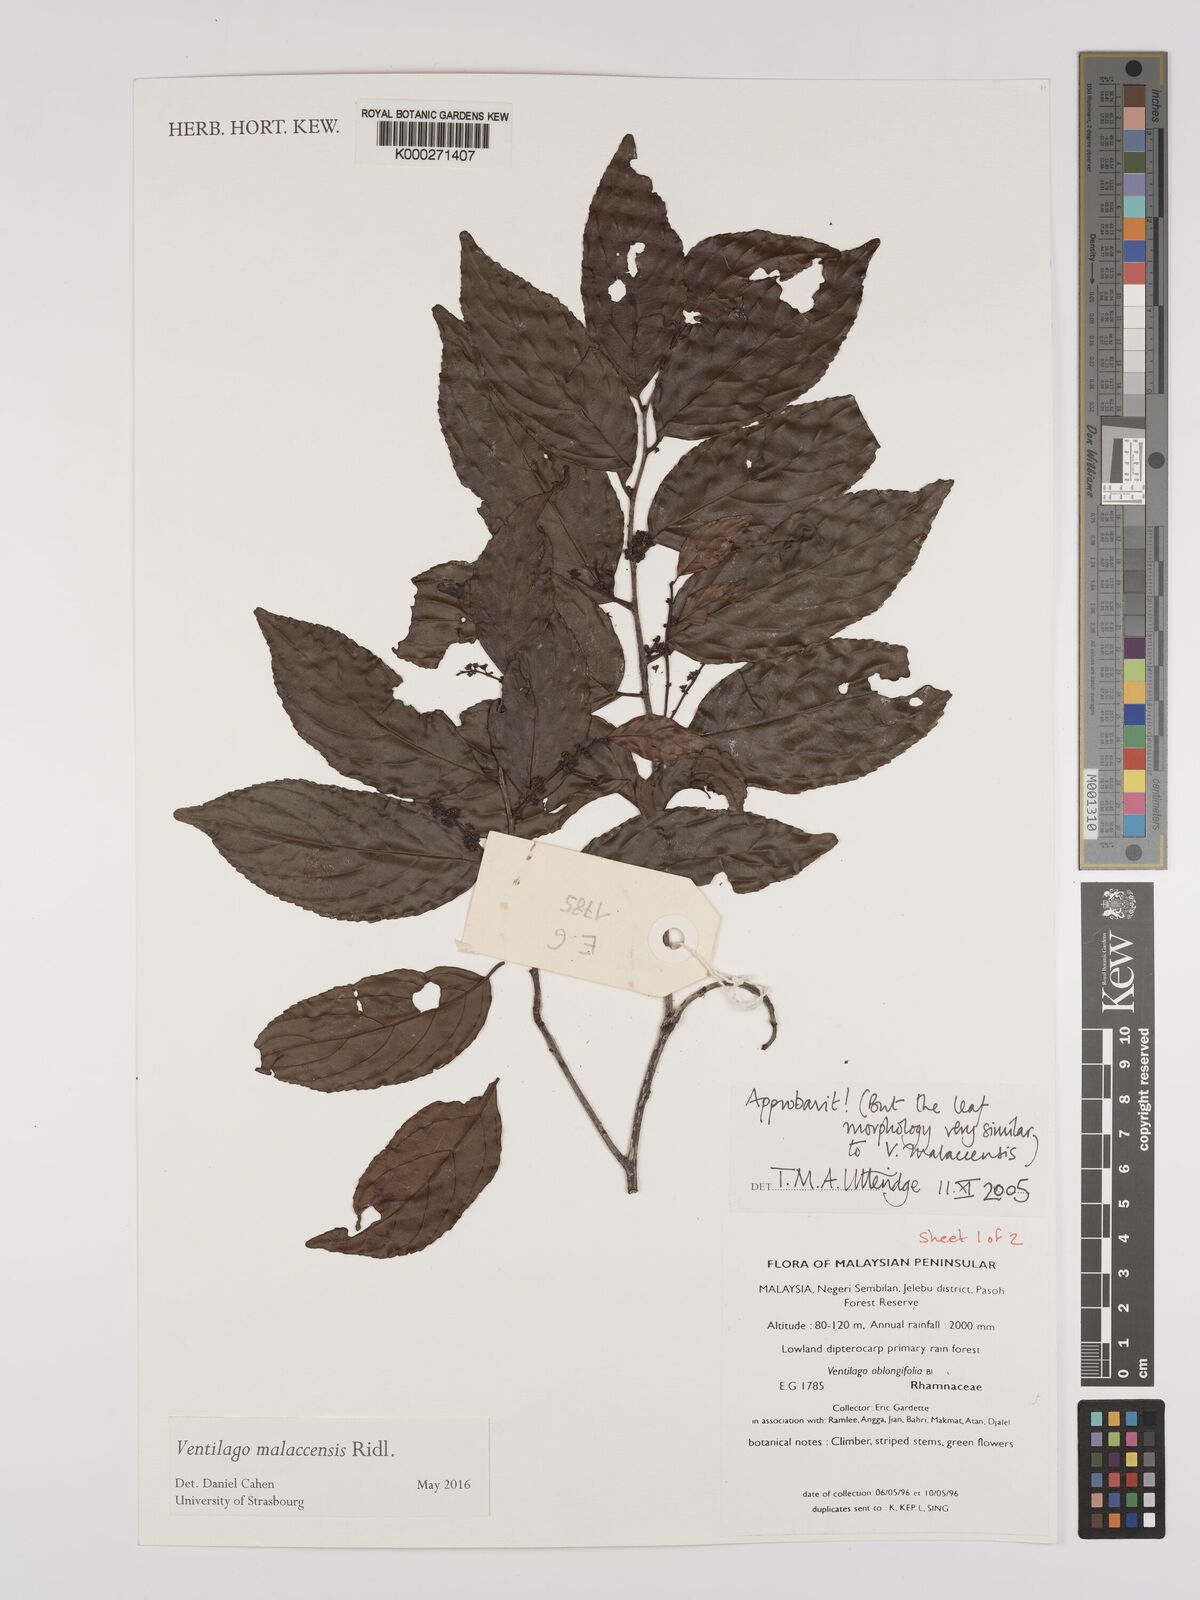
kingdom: Plantae
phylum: Tracheophyta
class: Magnoliopsida
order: Rosales
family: Rhamnaceae
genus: Smythea
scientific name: Smythea oblongifolia
